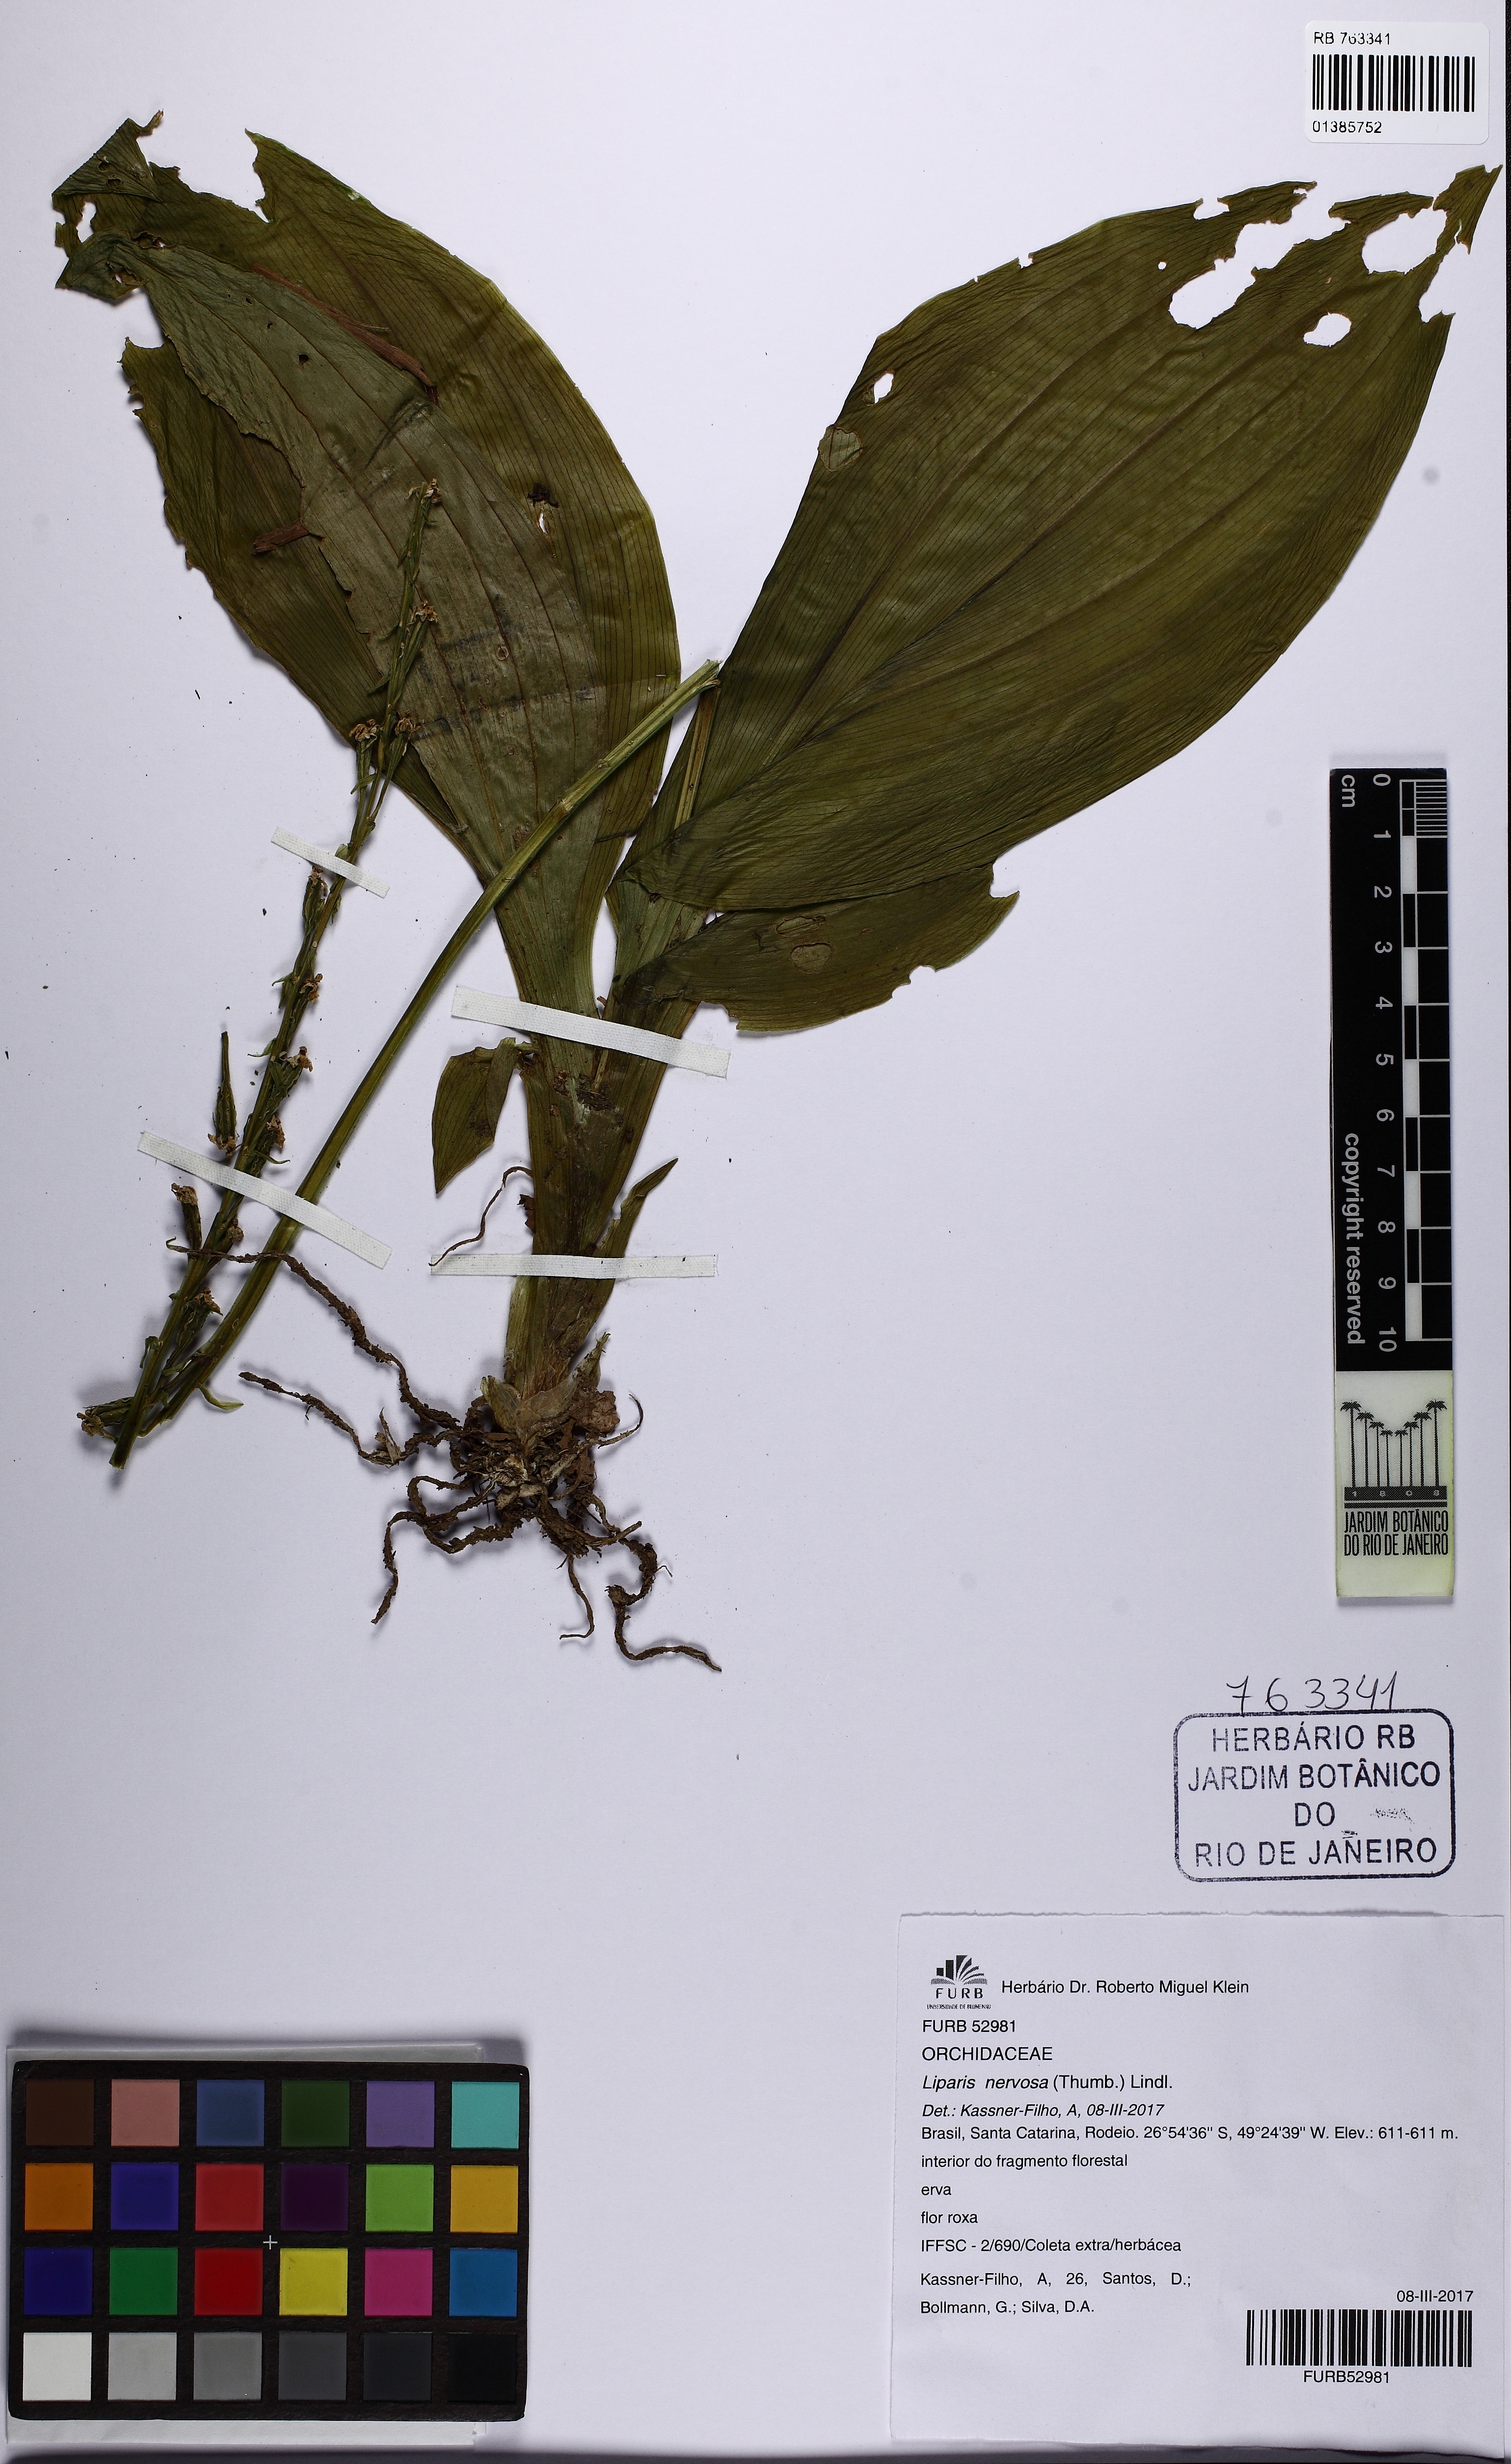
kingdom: Plantae
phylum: Tracheophyta
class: Liliopsida
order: Asparagales
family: Orchidaceae
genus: Liparis
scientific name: Liparis nervosa
